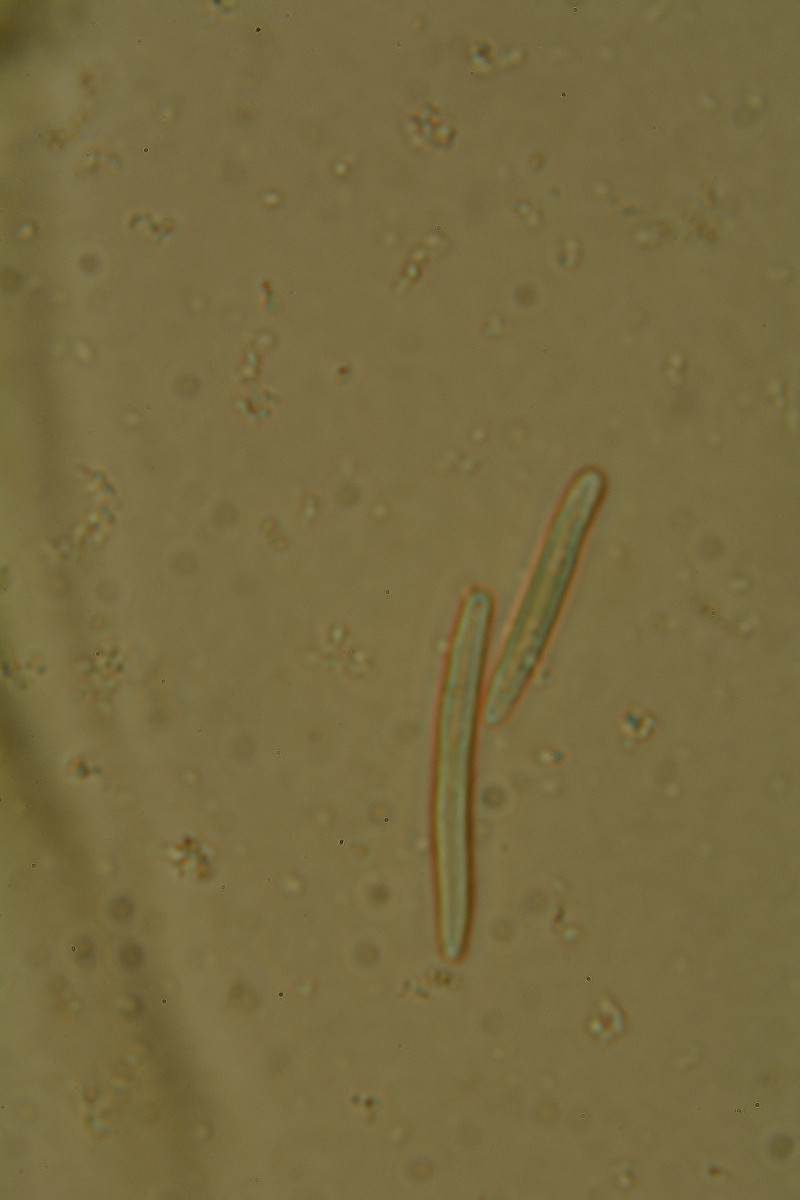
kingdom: Fungi
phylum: Ascomycota
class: Leotiomycetes
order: Helotiales
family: Mollisiaceae
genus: Trichobelonium
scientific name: Trichobelonium kneiffii
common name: tagrør-gråskive
